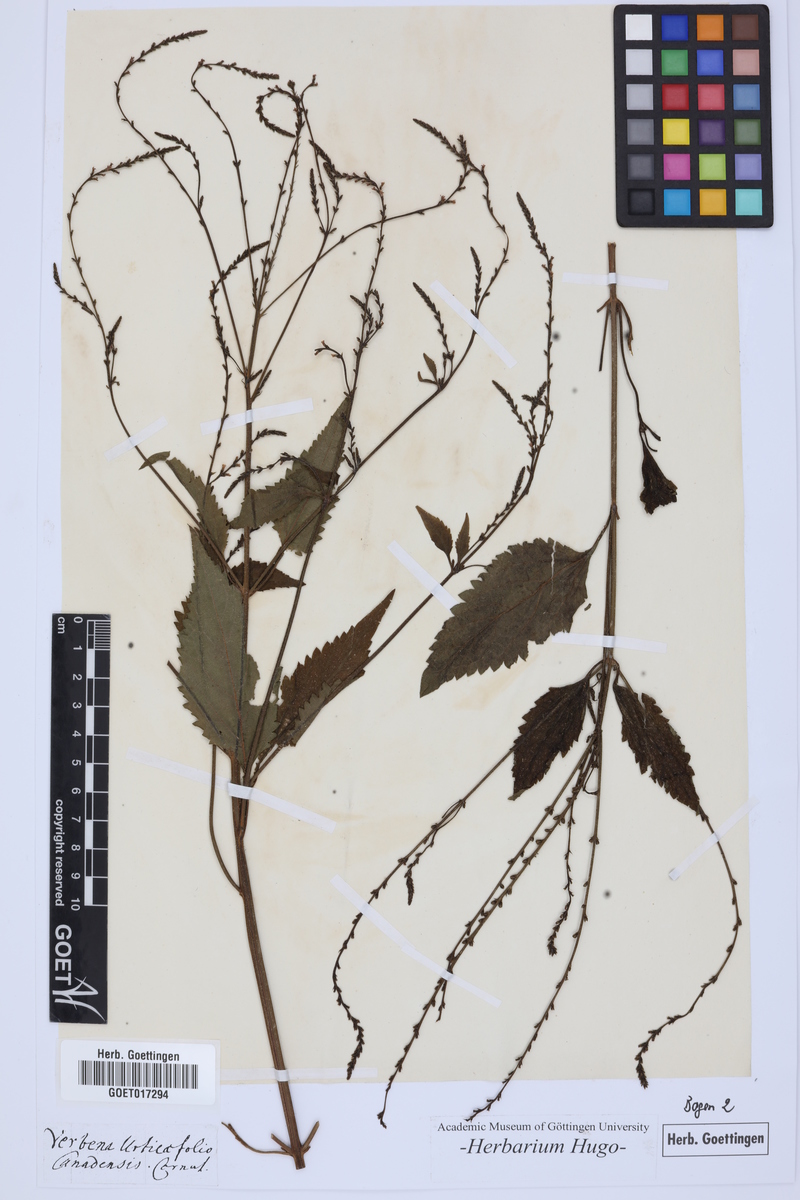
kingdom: Plantae
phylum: Tracheophyta
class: Magnoliopsida
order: Lamiales
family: Verbenaceae
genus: Verbena
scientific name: Verbena urticifolia
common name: Nettle-leaved vervain
